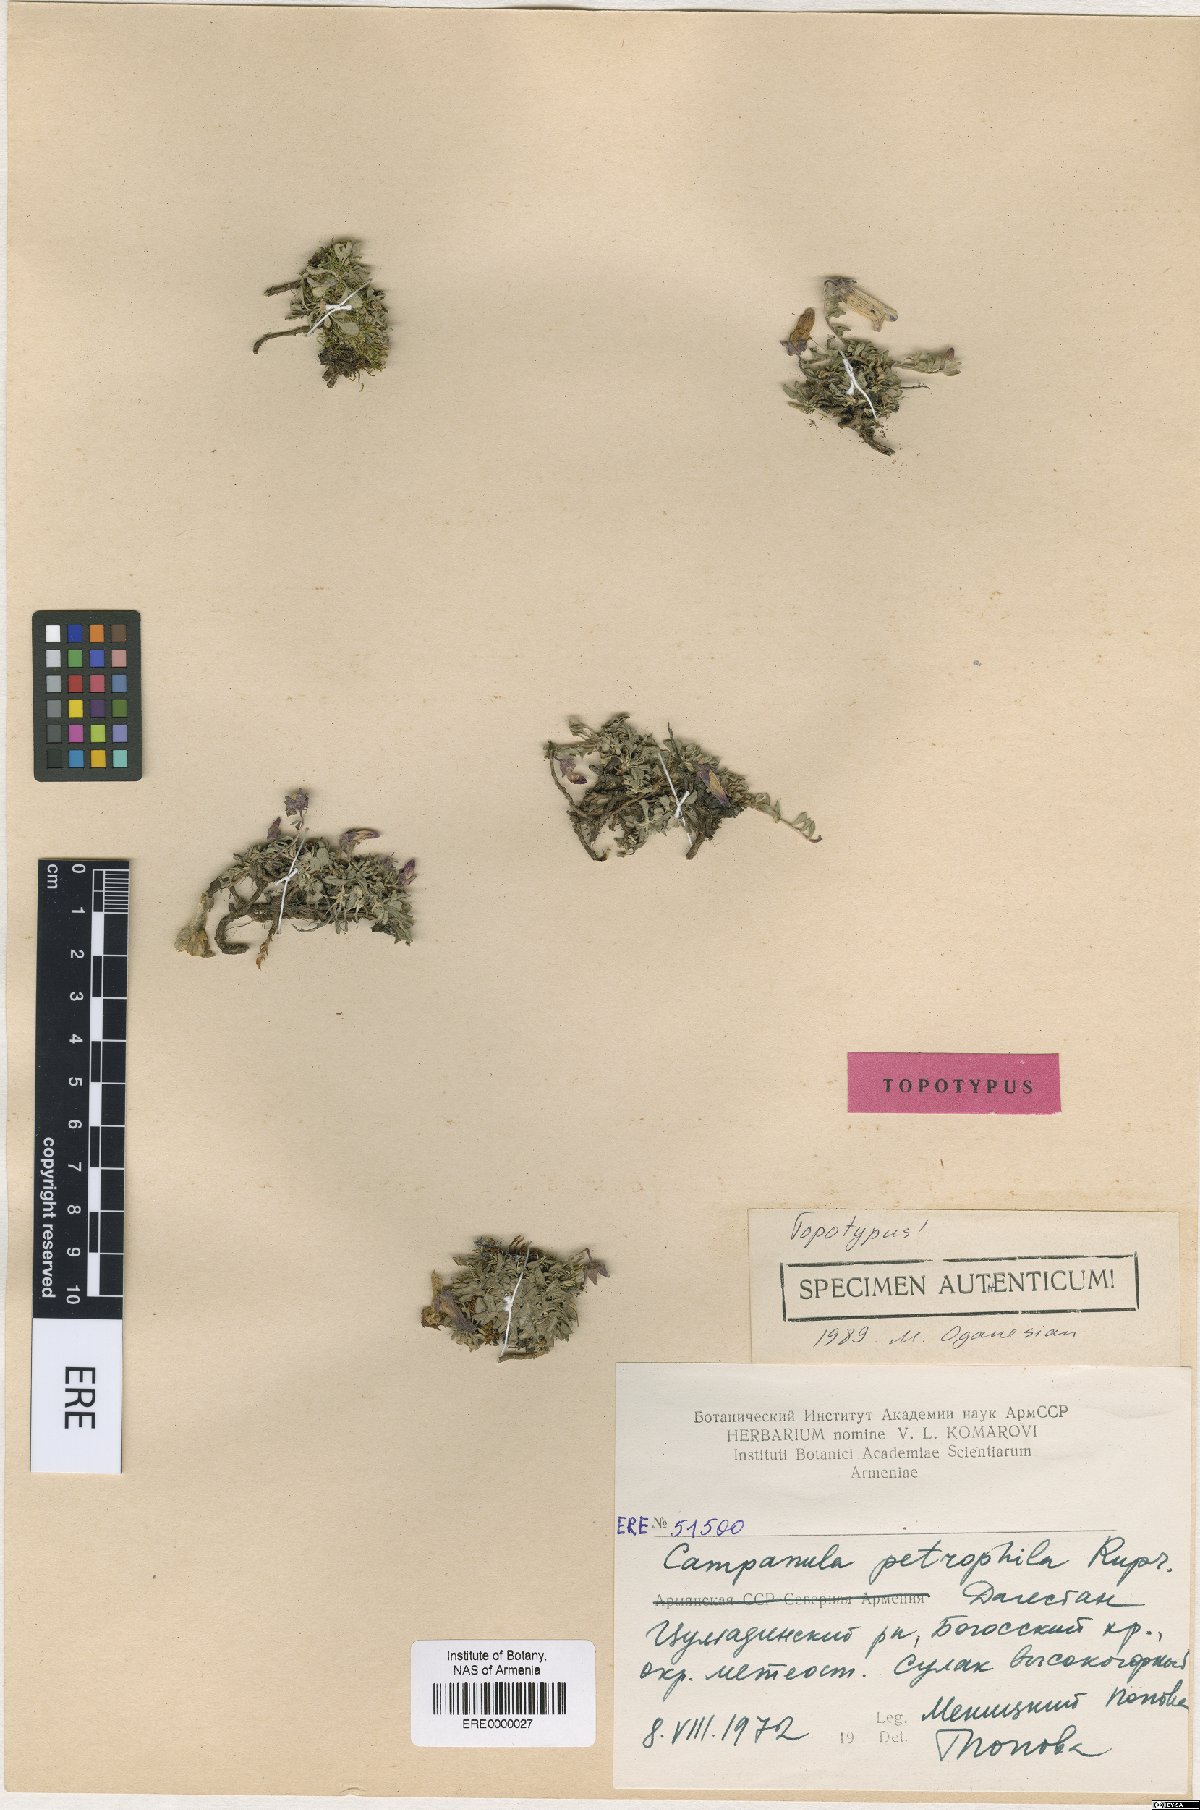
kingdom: Plantae
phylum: Tracheophyta
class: Magnoliopsida
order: Asterales
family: Campanulaceae
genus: Campanula
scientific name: Campanula petrophila
